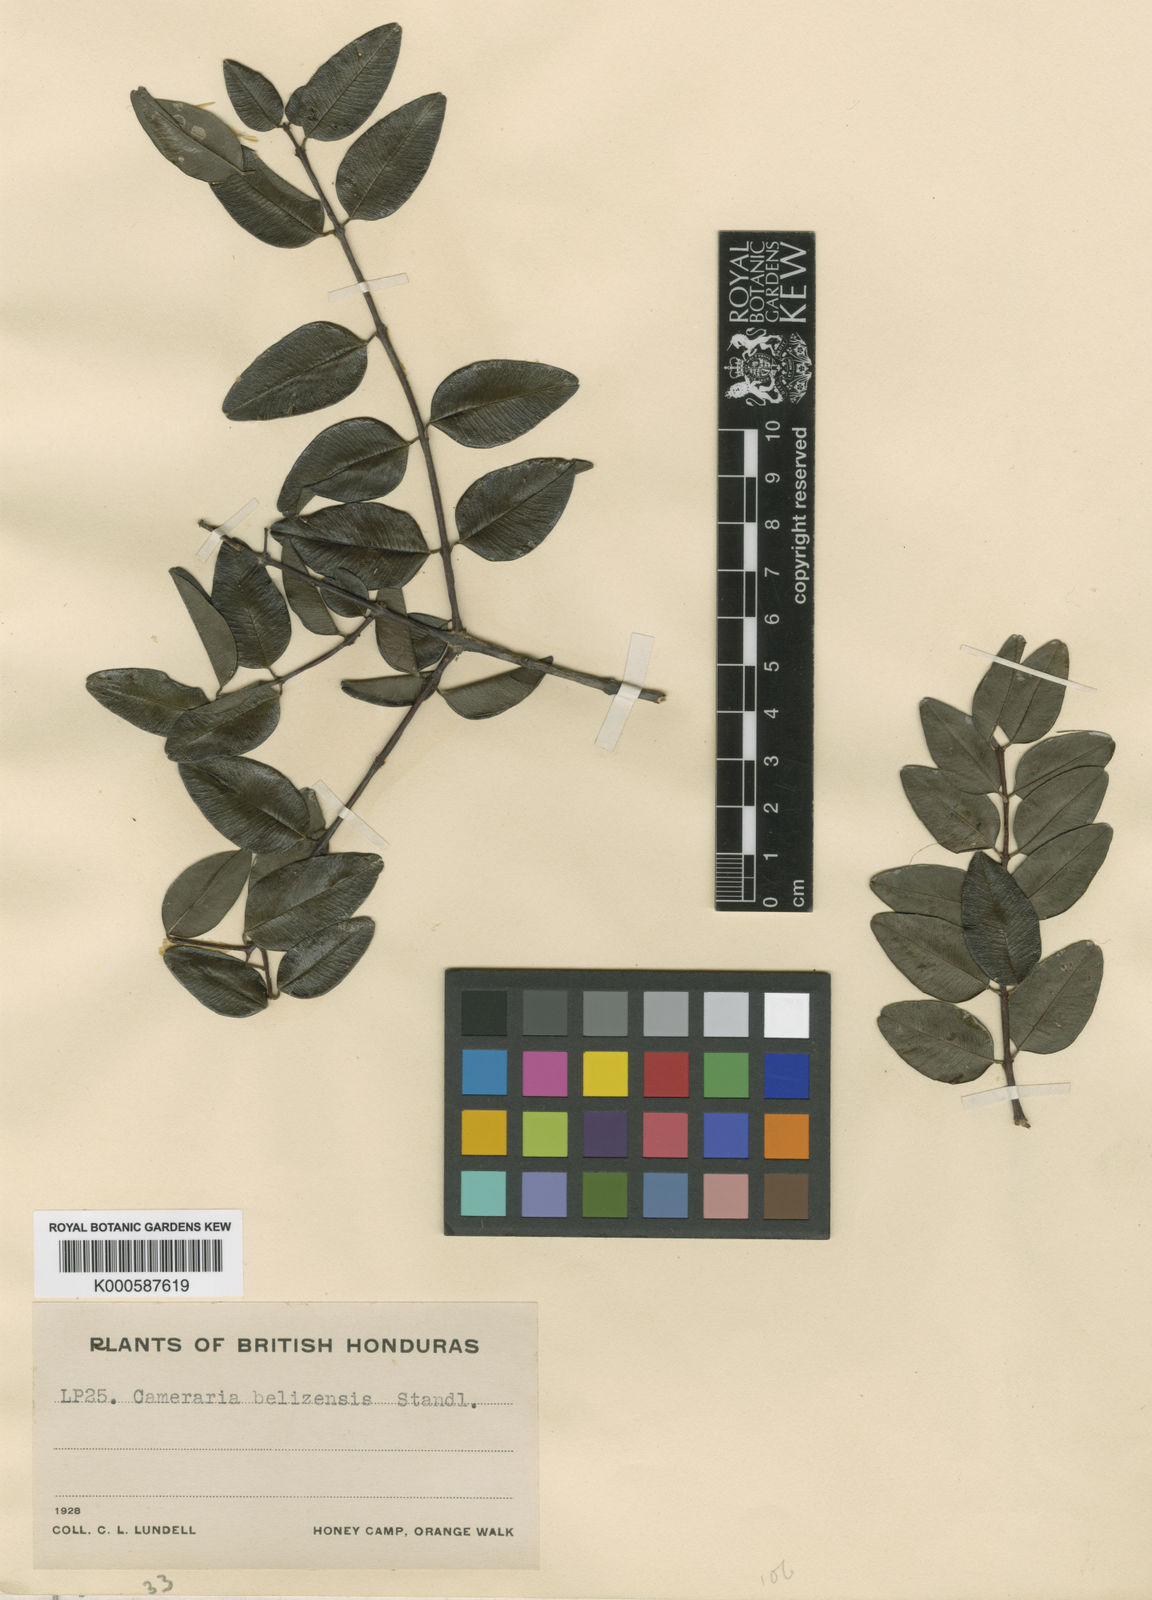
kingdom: Plantae
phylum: Tracheophyta
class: Magnoliopsida
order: Gentianales
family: Apocynaceae
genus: Cameraria
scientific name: Cameraria latifolia
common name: Savanna white poisonwood
